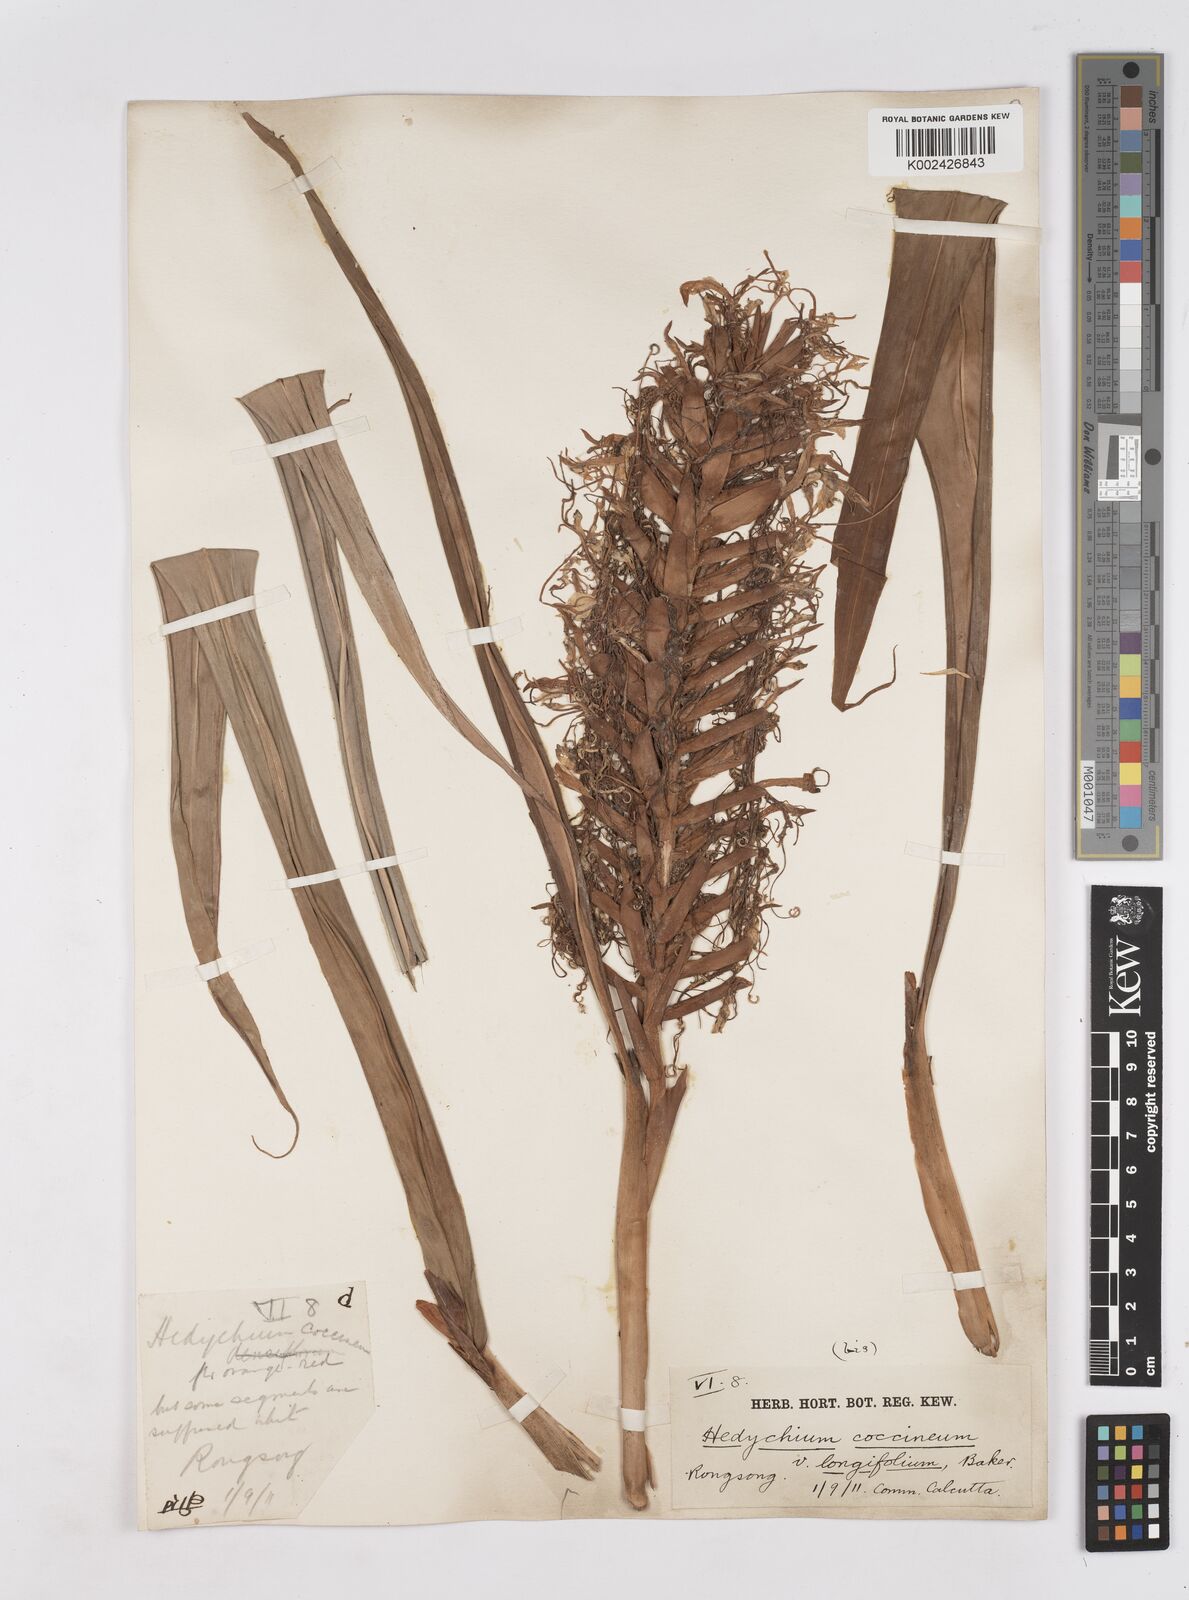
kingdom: Plantae
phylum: Tracheophyta
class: Liliopsida
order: Zingiberales
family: Zingiberaceae
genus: Hedychium
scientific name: Hedychium coccineum
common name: Red ginger-lily
